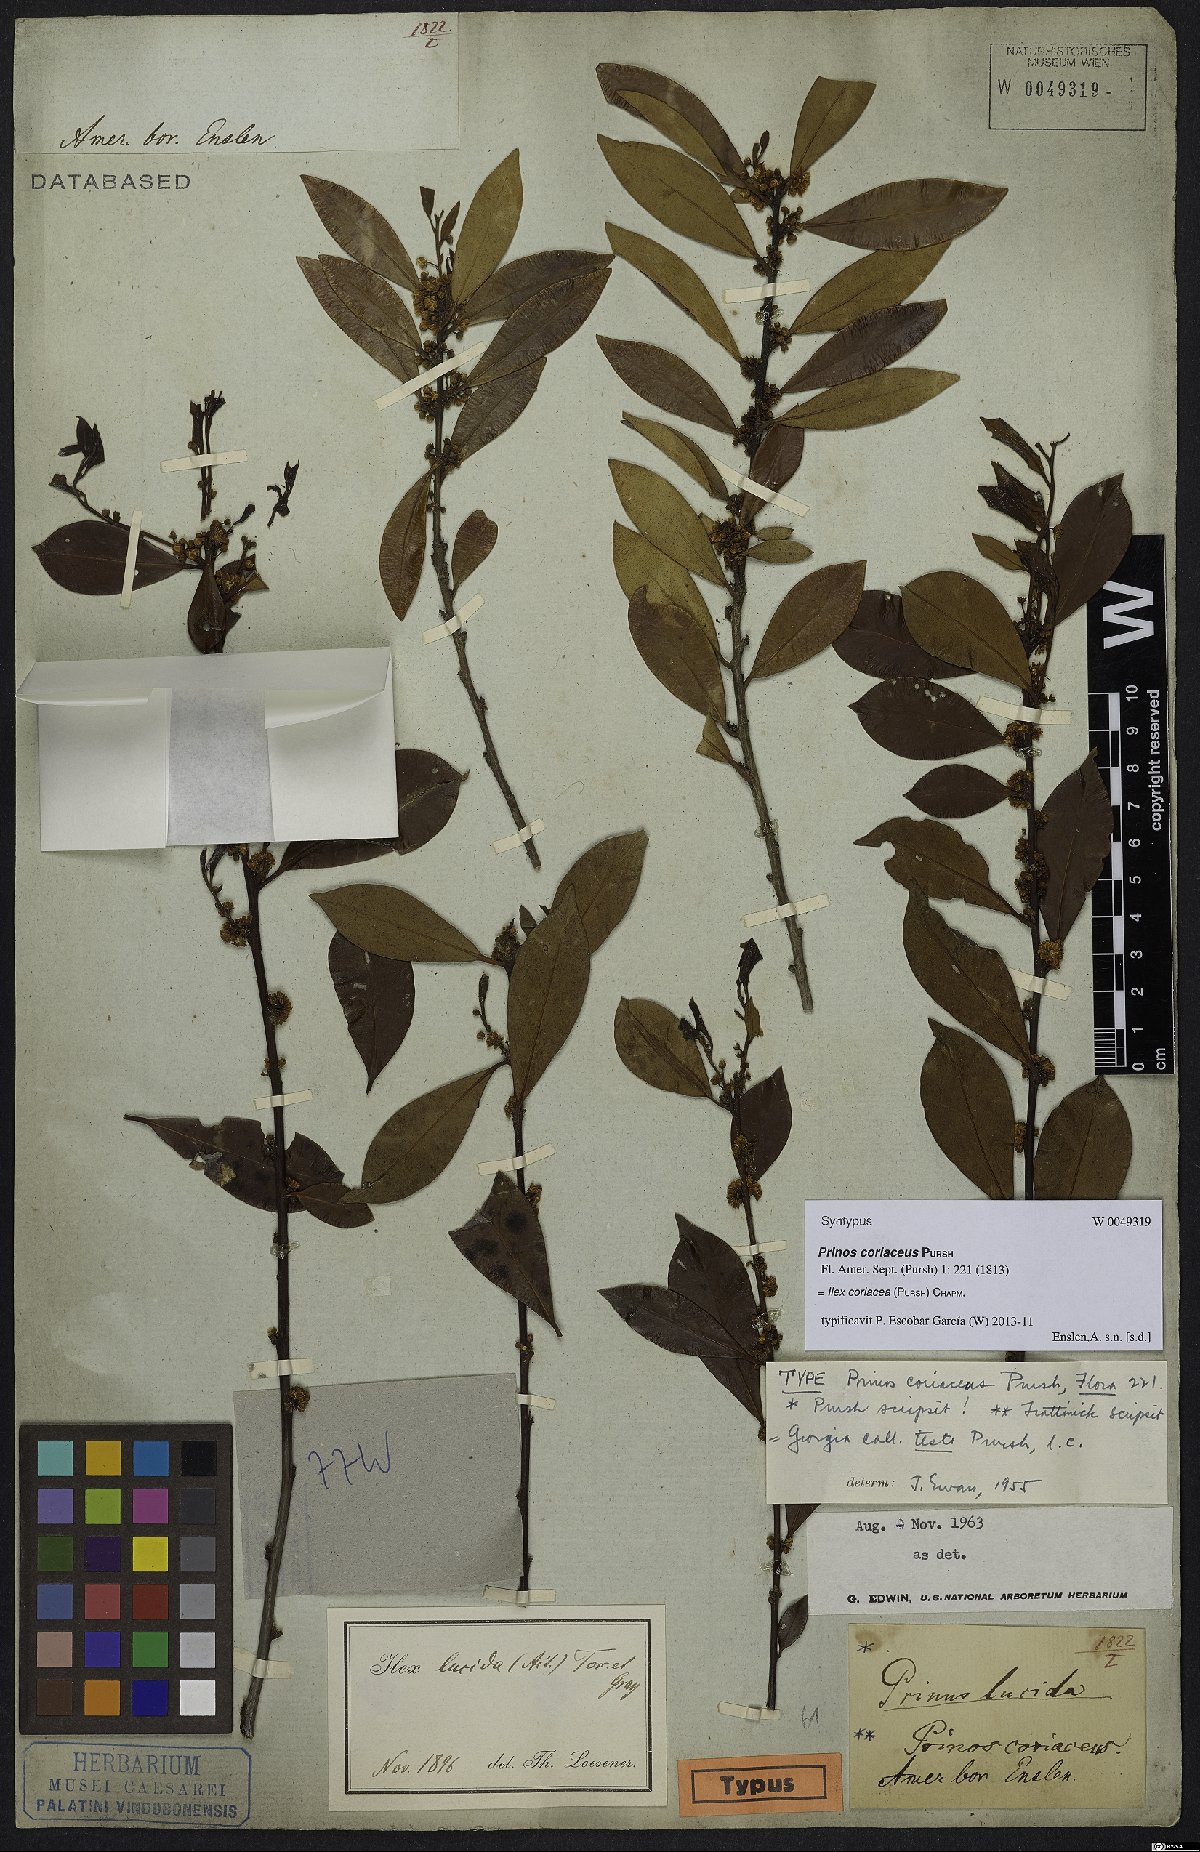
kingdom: Plantae
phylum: Tracheophyta
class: Magnoliopsida
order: Aquifoliales
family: Aquifoliaceae
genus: Ilex
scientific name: Ilex coriacea
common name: Sweet gallberry
